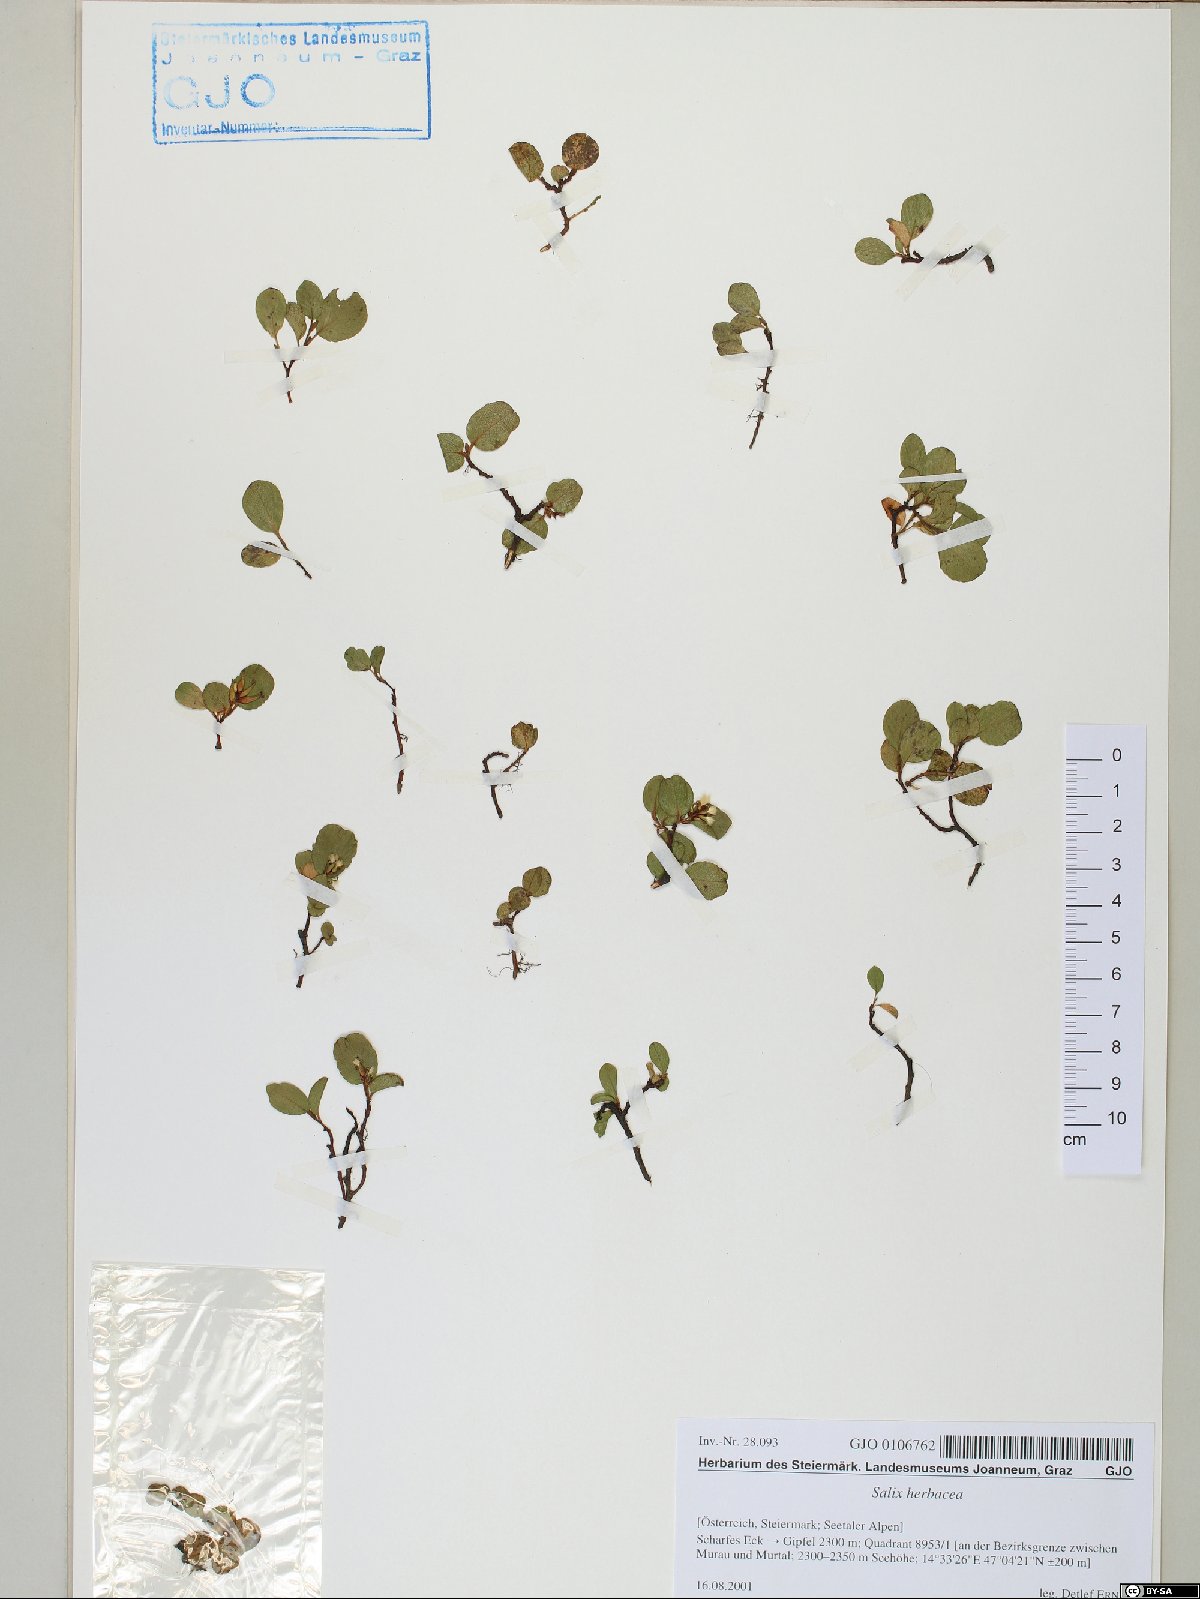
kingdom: Plantae
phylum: Tracheophyta
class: Magnoliopsida
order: Malpighiales
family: Salicaceae
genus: Salix
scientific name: Salix herbacea
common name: Dwarf willow
